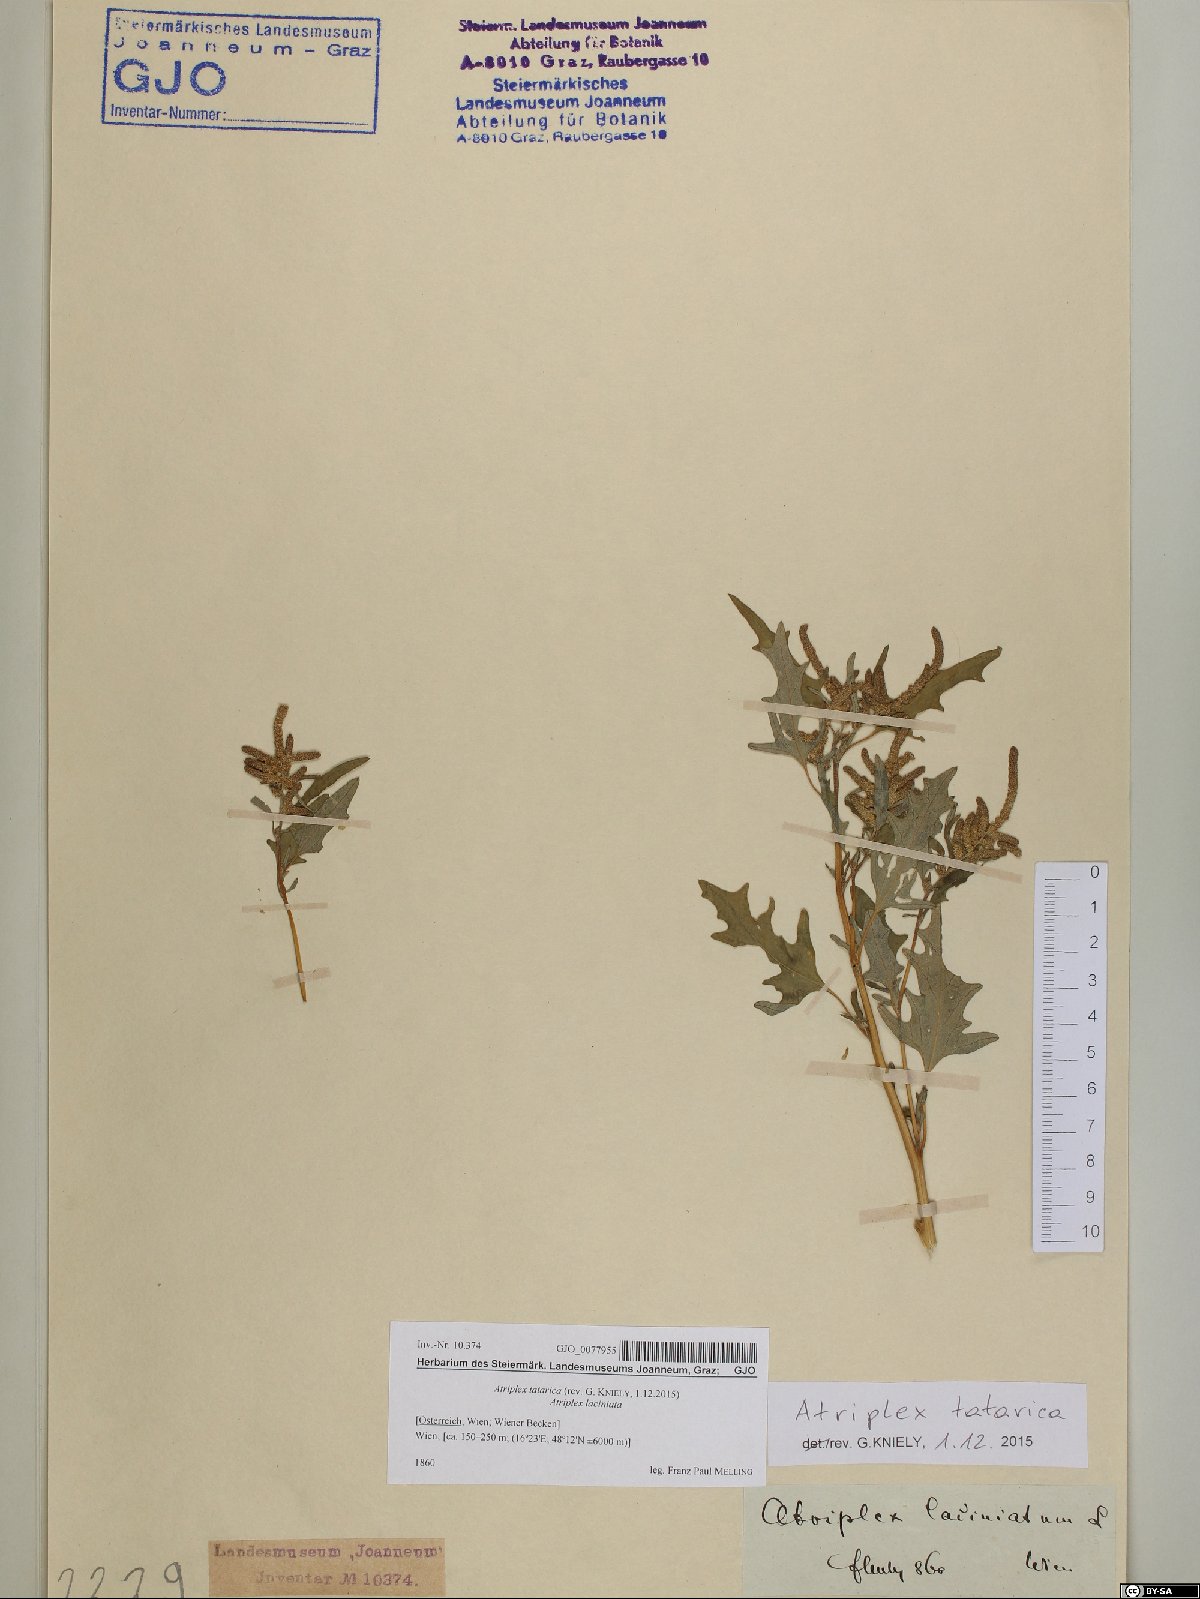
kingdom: Plantae
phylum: Tracheophyta
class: Magnoliopsida
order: Caryophyllales
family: Amaranthaceae
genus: Atriplex
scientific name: Atriplex tatarica
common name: Tatarian orache
